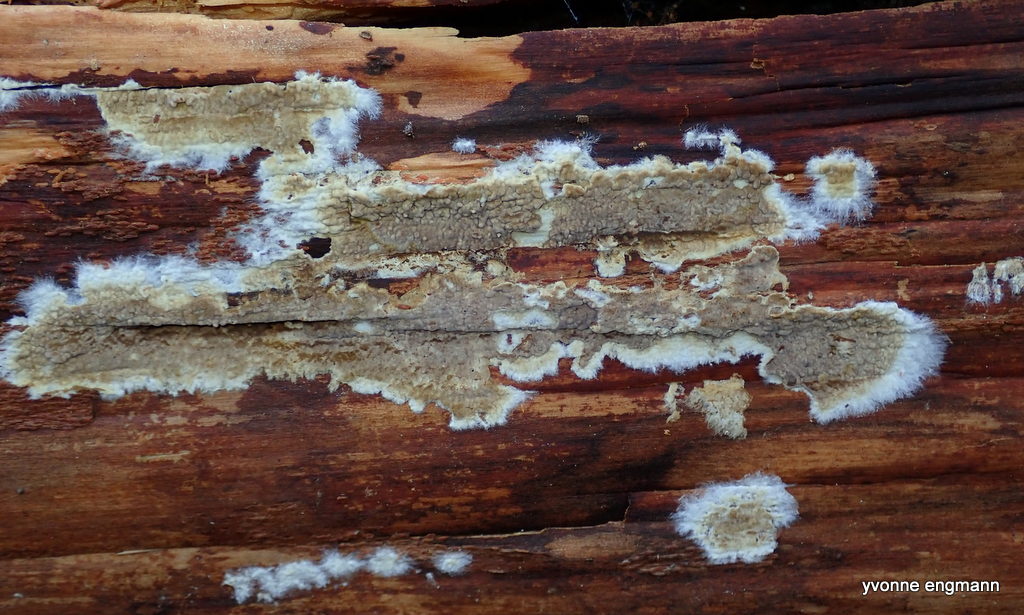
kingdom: Fungi
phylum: Basidiomycota
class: Agaricomycetes
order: Boletales
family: Coniophoraceae
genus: Coniophora
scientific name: Coniophora puteana
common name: gul tømmersvamp
